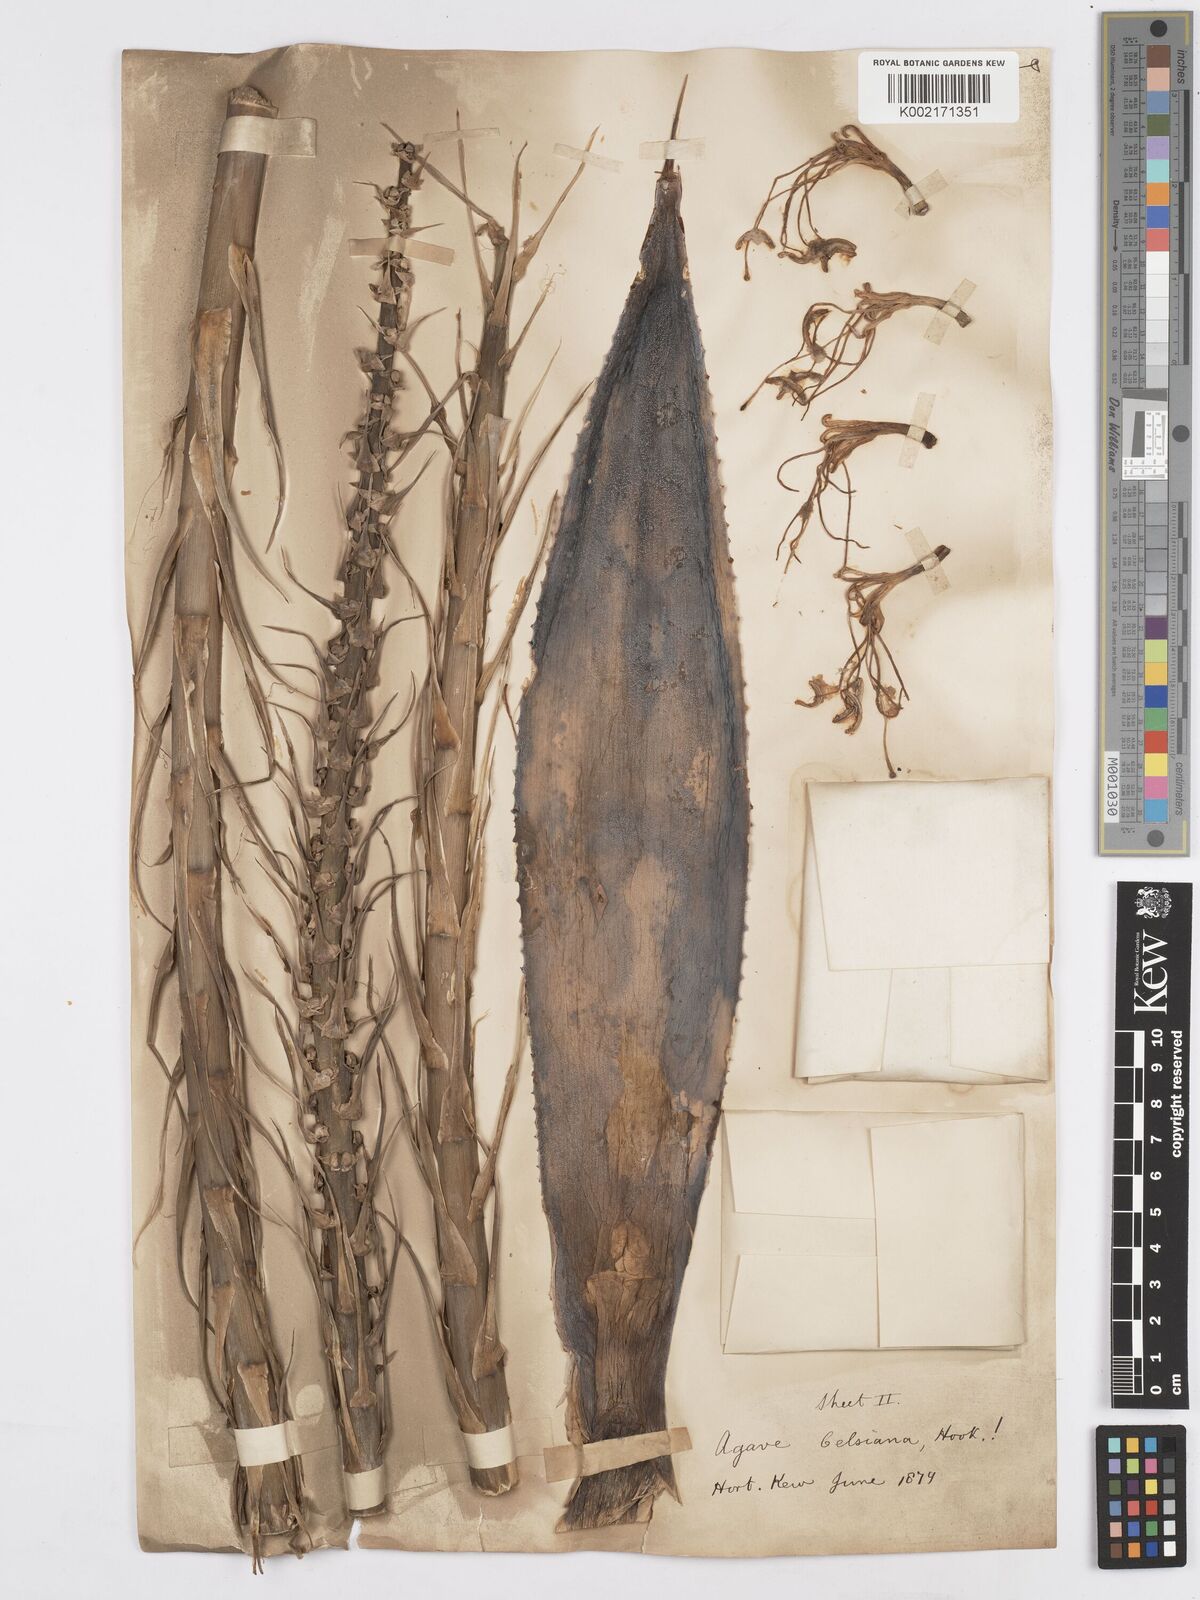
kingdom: Plantae
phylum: Tracheophyta
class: Liliopsida
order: Asparagales
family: Asparagaceae
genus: Agave
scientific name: Agave mitis
